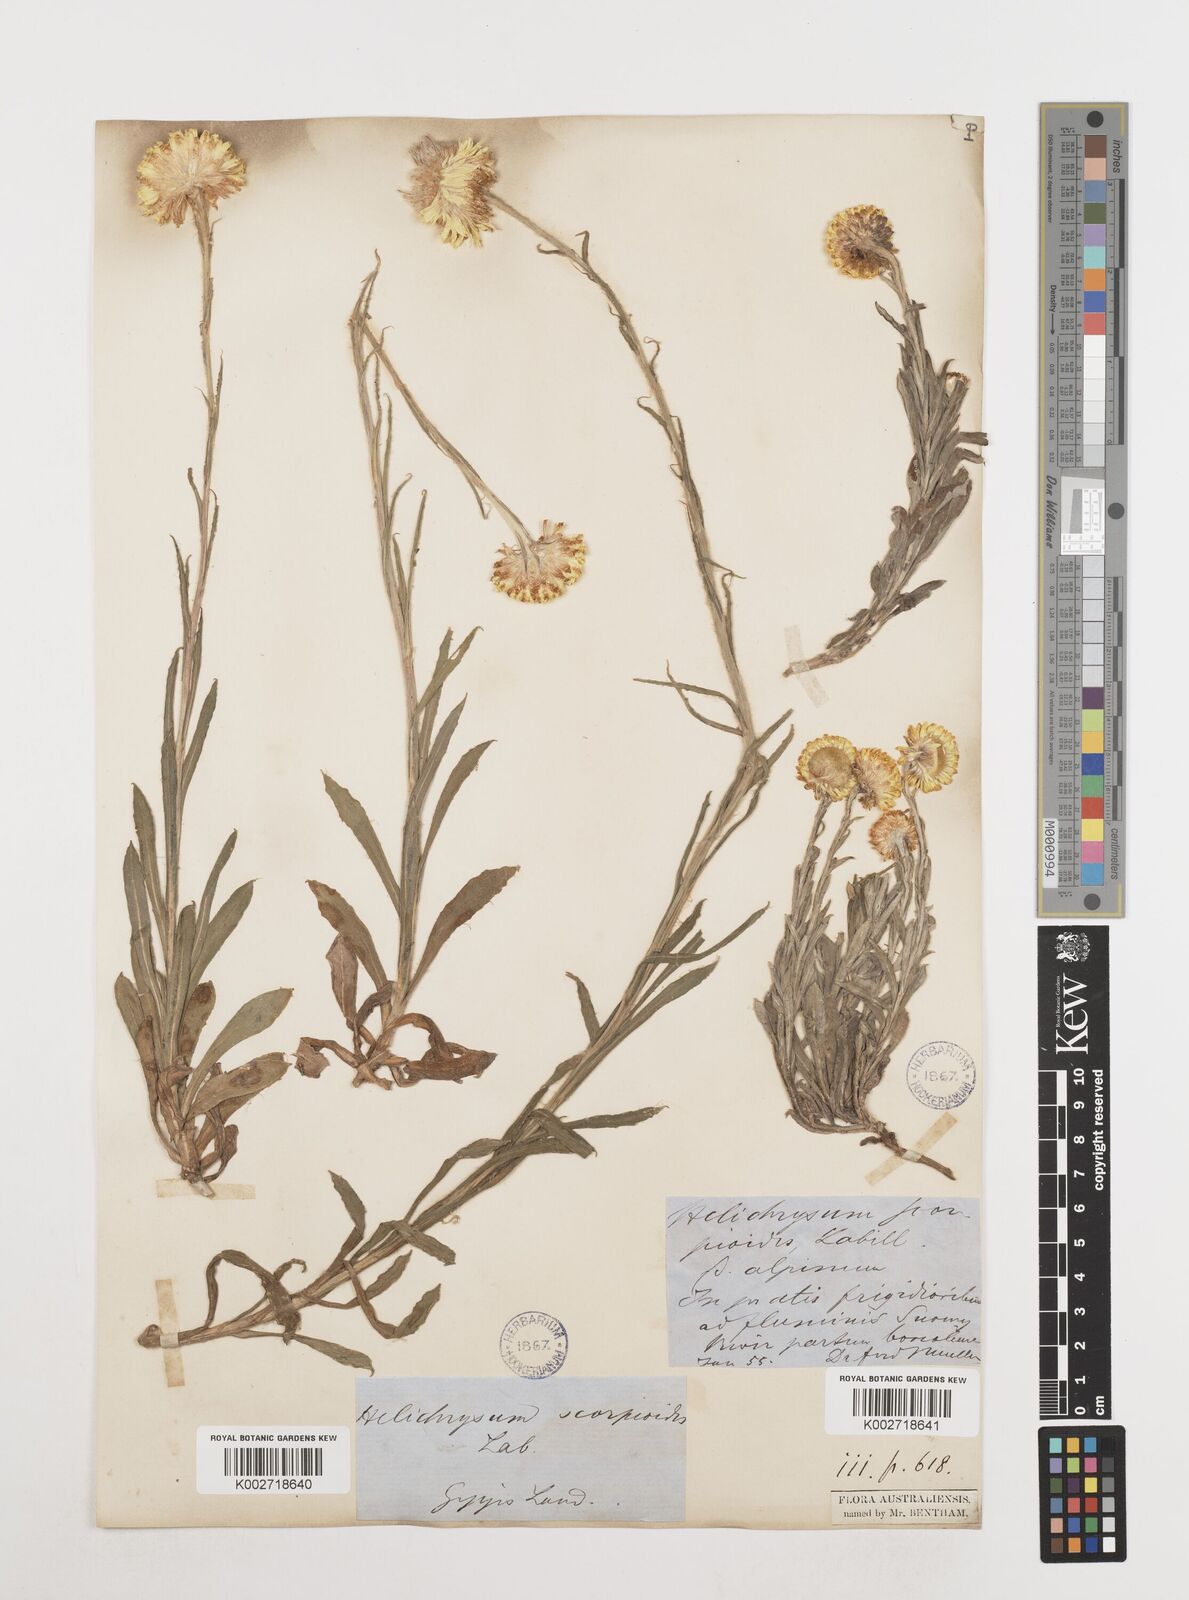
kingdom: Plantae
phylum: Tracheophyta
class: Magnoliopsida
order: Asterales
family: Asteraceae
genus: Coronidium
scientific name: Coronidium scorpioides
